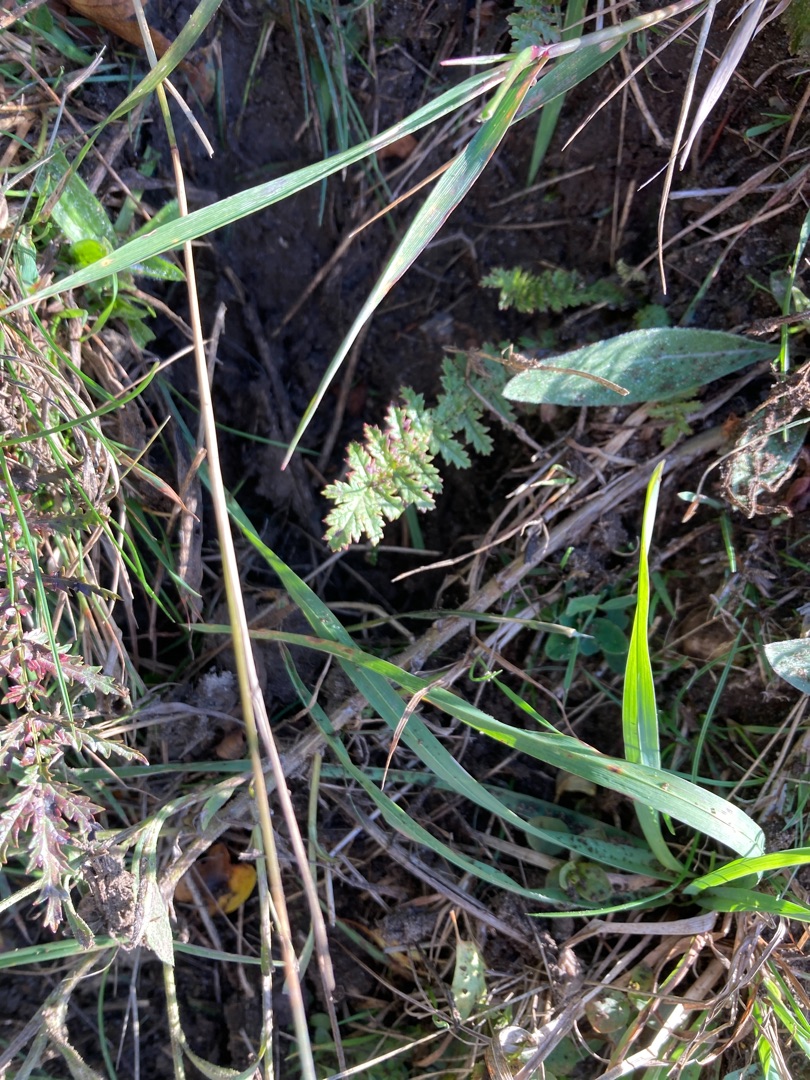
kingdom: Plantae
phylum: Tracheophyta
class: Magnoliopsida
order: Rosales
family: Rosaceae
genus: Filipendula
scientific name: Filipendula vulgaris
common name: Knoldet mjødurt
